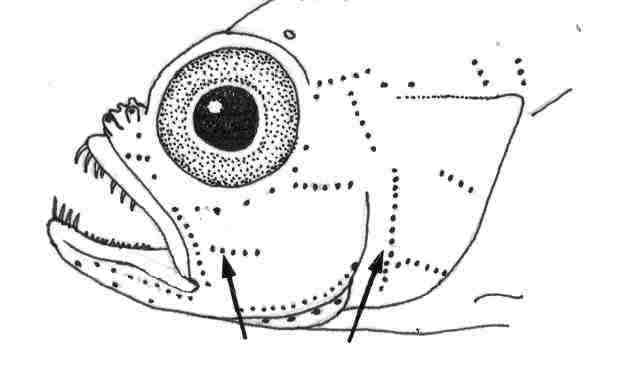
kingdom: Animalia
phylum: Chordata
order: Perciformes
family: Gobiidae
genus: Trimma
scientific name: Trimma flammeum
